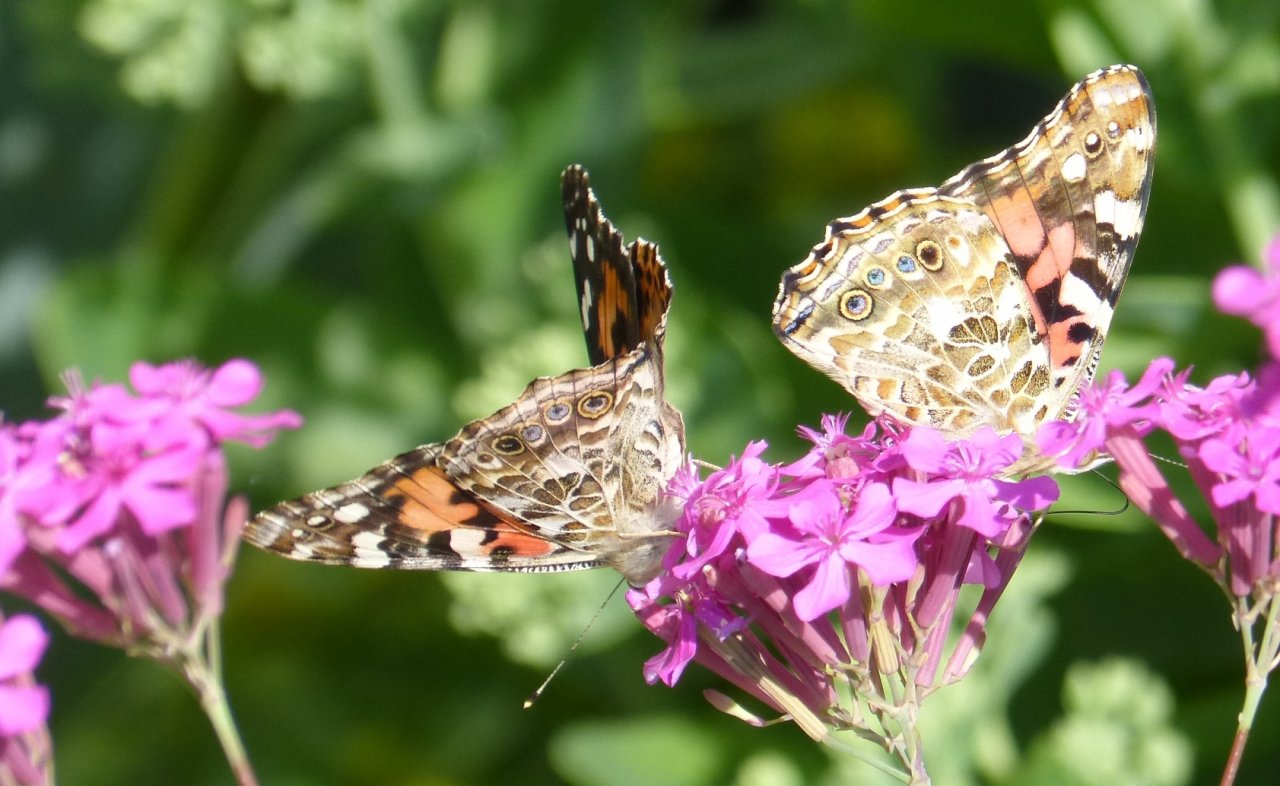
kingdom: Animalia
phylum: Arthropoda
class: Insecta
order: Lepidoptera
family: Nymphalidae
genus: Vanessa
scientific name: Vanessa cardui
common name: Painted Lady
